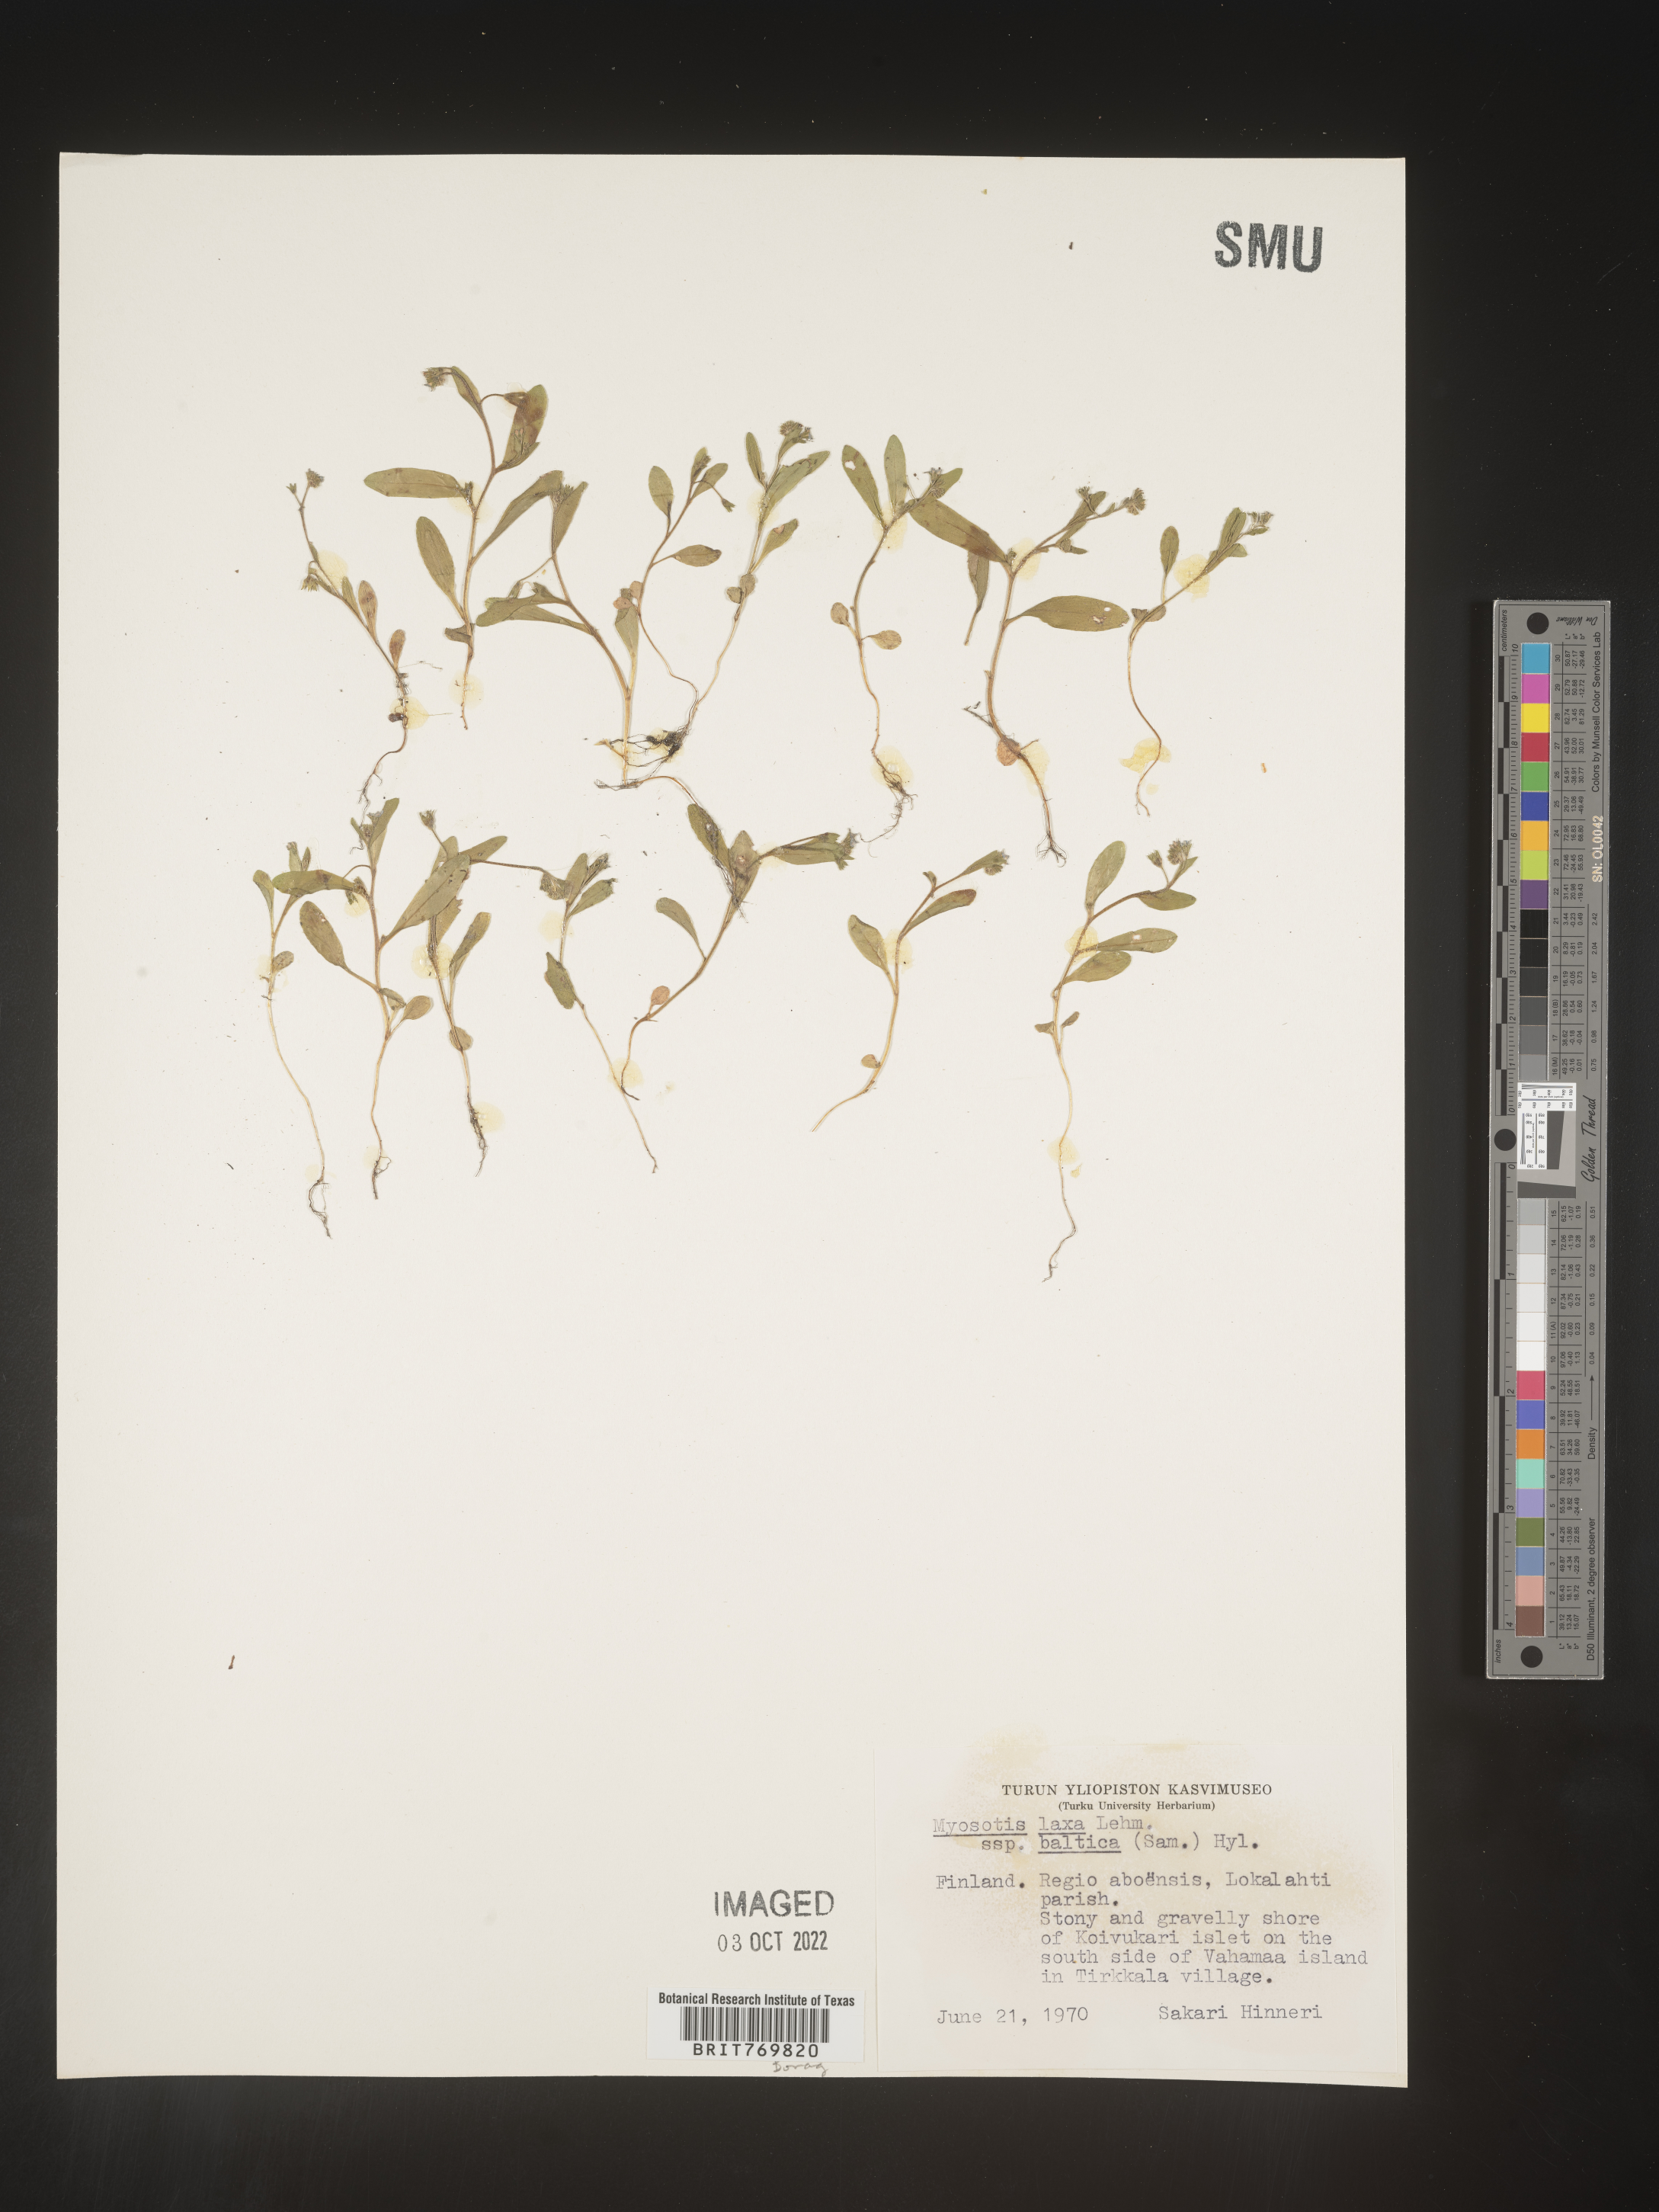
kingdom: Plantae
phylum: Tracheophyta
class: Magnoliopsida
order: Boraginales
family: Boraginaceae
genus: Myosotis
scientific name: Myosotis
